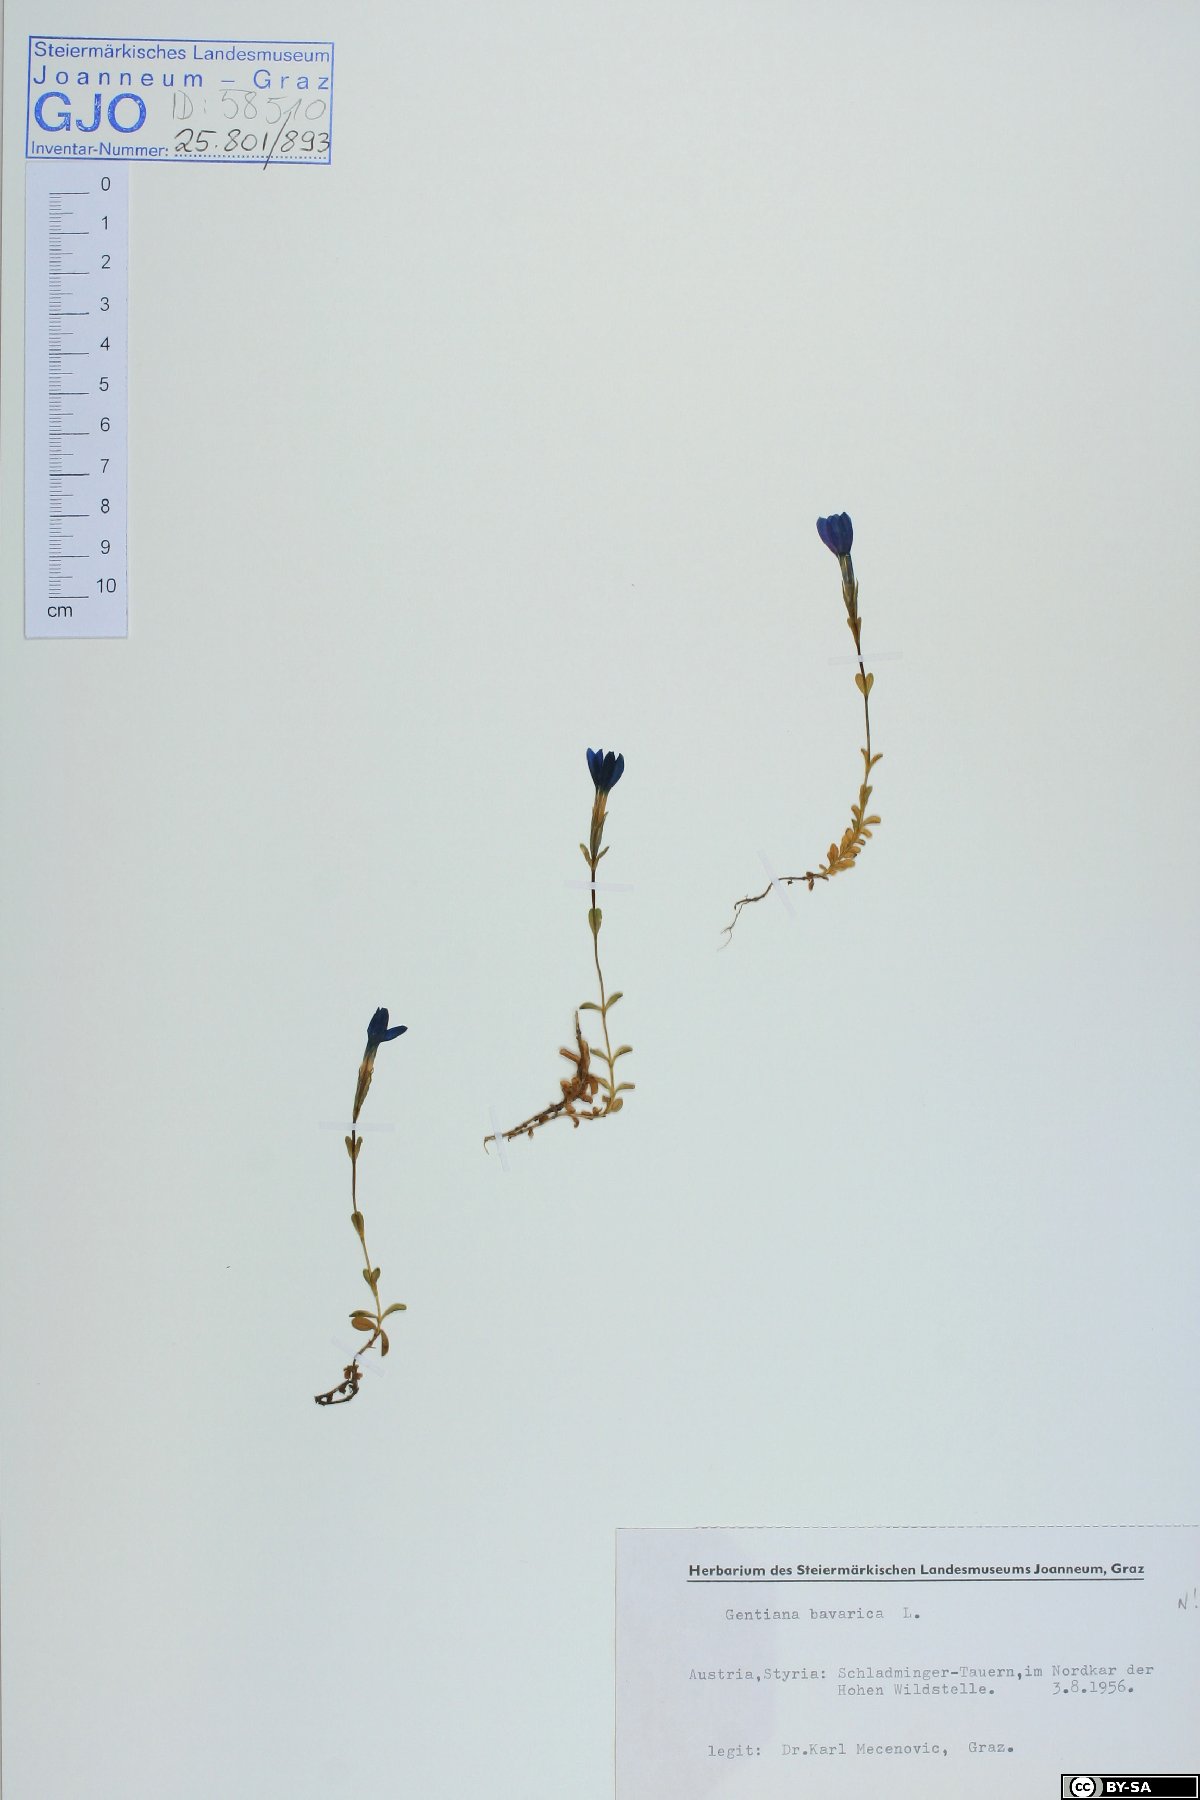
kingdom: Plantae
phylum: Tracheophyta
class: Magnoliopsida
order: Gentianales
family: Gentianaceae
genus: Gentiana
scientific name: Gentiana bavarica
